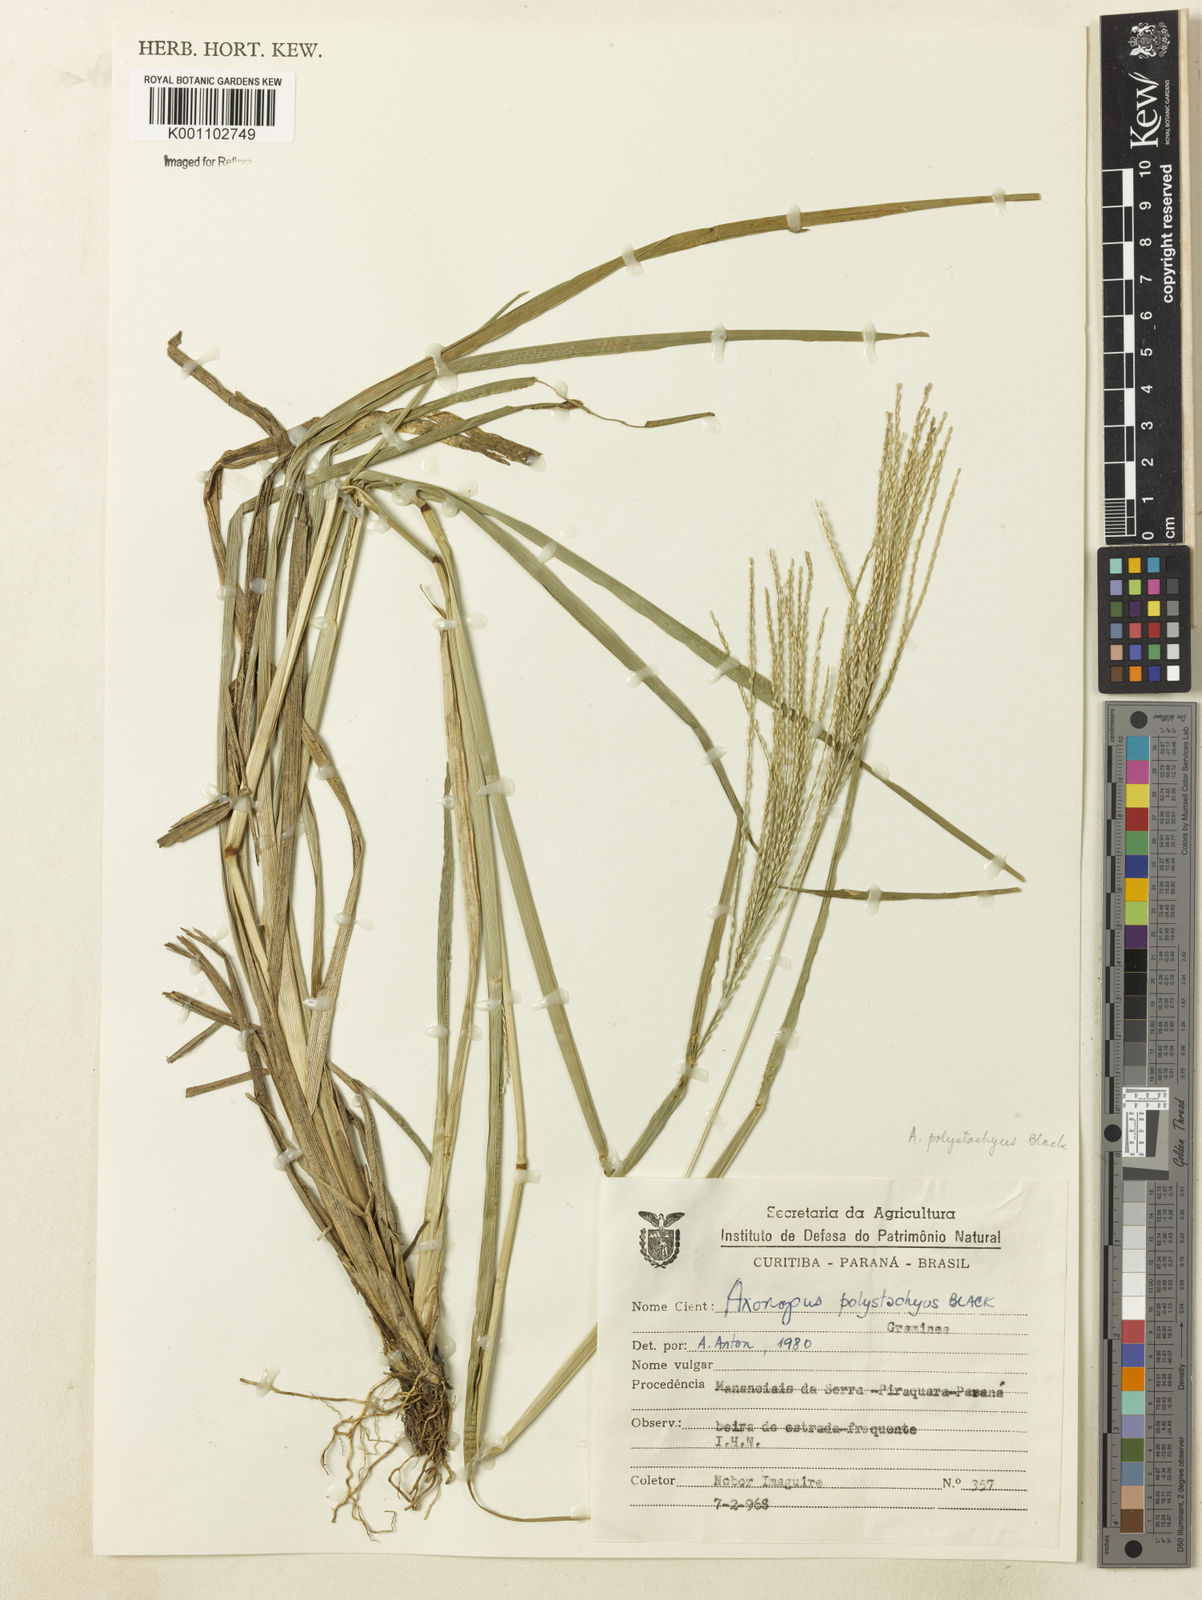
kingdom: Plantae
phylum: Tracheophyta
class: Liliopsida
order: Poales
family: Poaceae
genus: Axonopus
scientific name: Axonopus polystachyus
